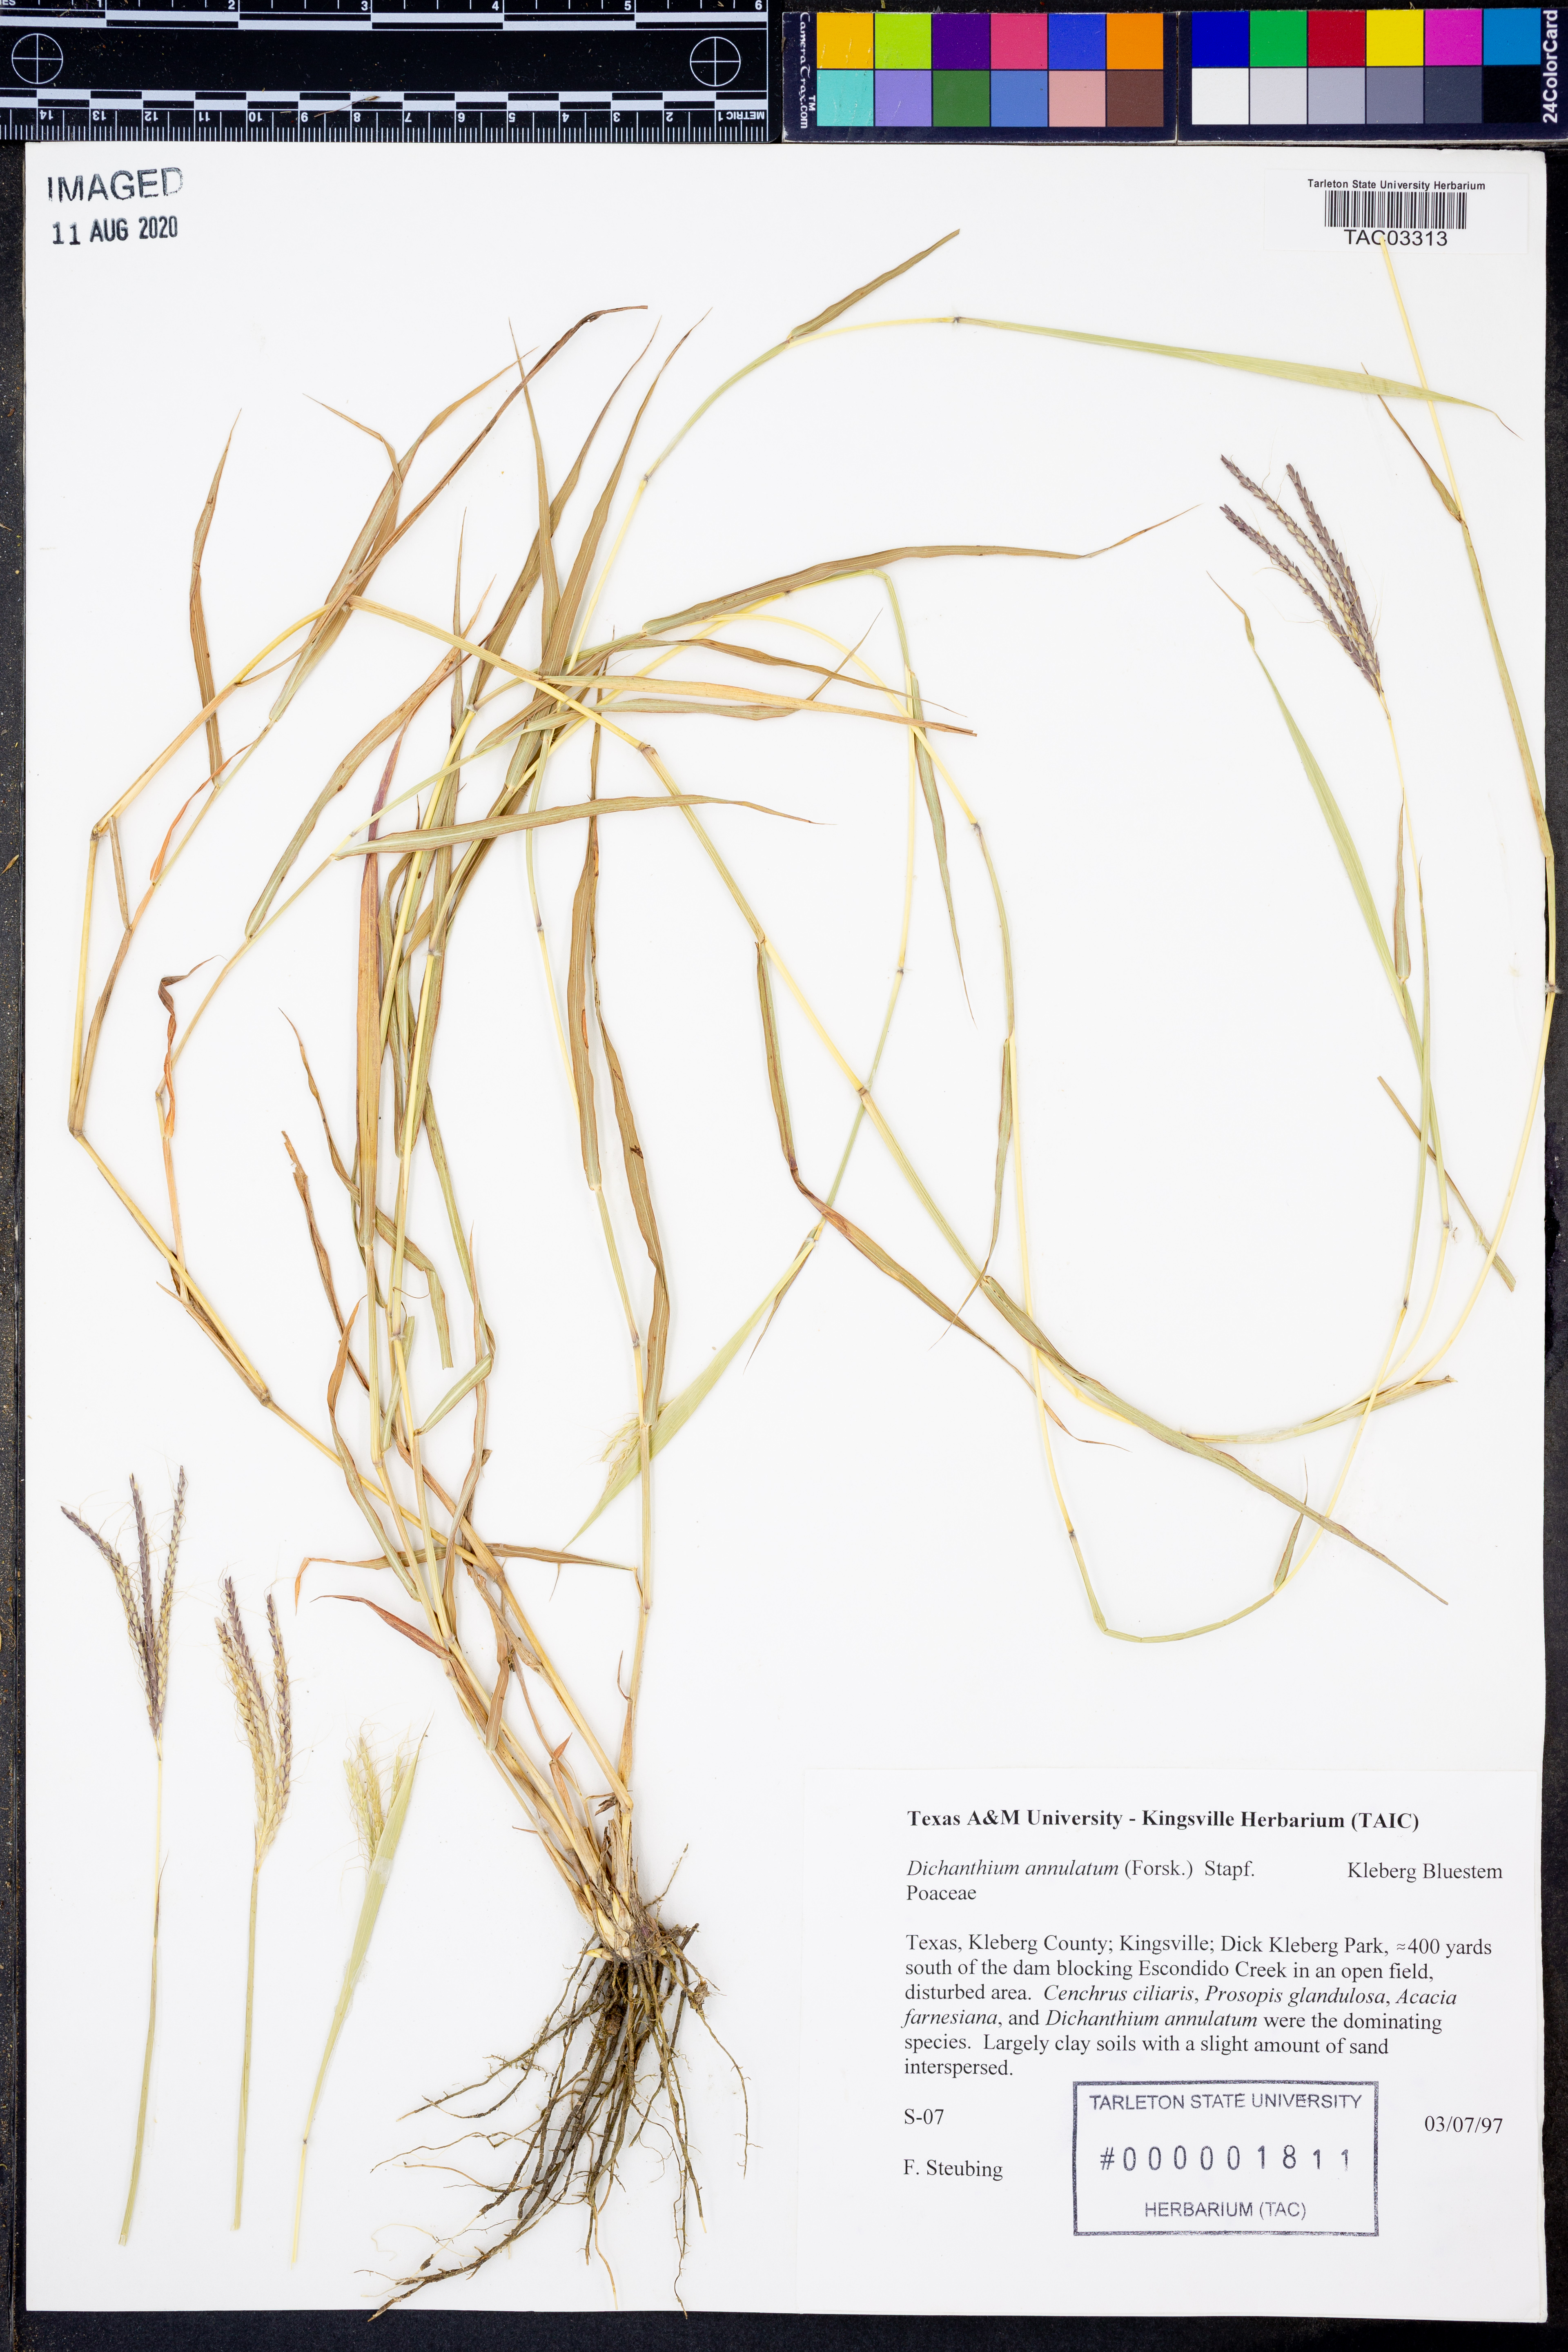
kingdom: Plantae
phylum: Tracheophyta
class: Liliopsida
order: Poales
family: Poaceae
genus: Dichanthium
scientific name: Dichanthium annulatum
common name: Kleberg's bluestem
